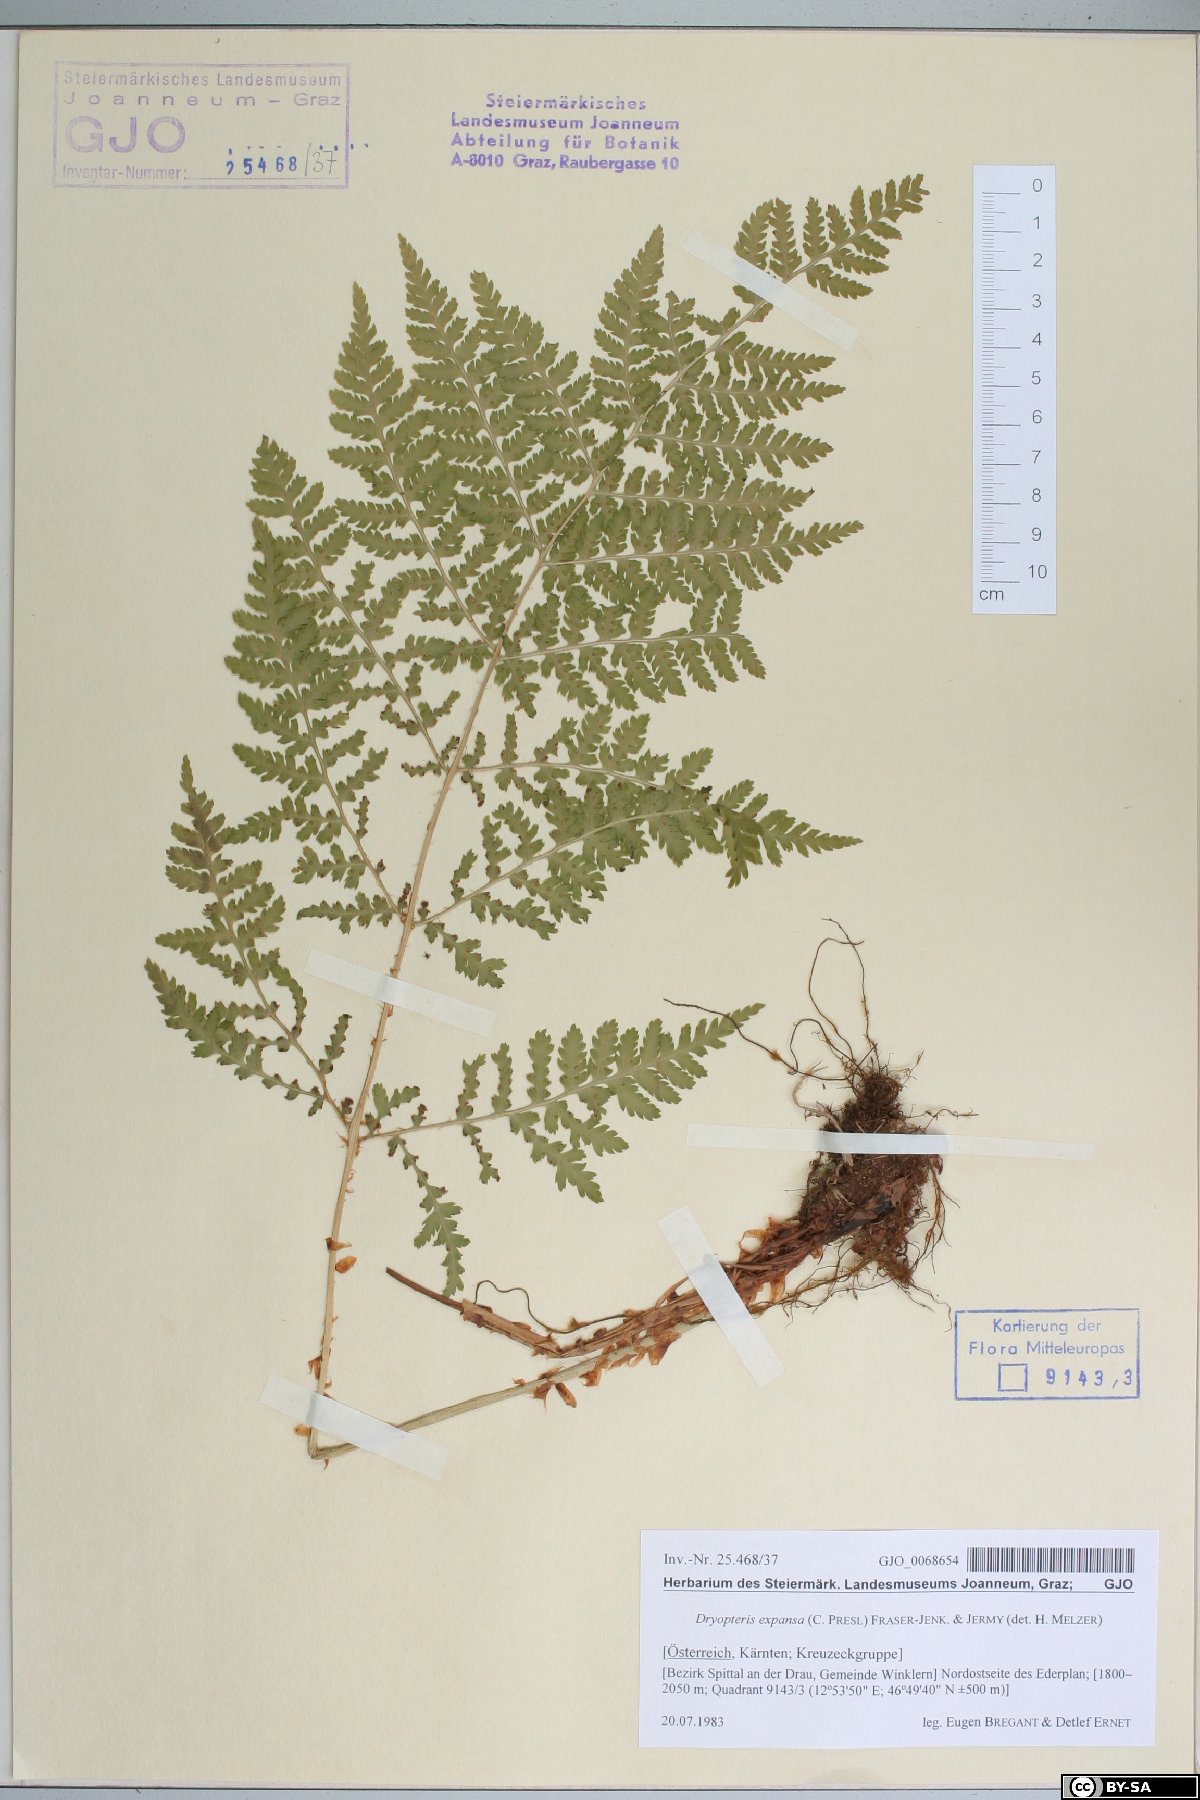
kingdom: Plantae
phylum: Tracheophyta
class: Polypodiopsida
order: Polypodiales
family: Dryopteridaceae
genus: Dryopteris
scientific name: Dryopteris expansa
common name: Northern buckler fern
